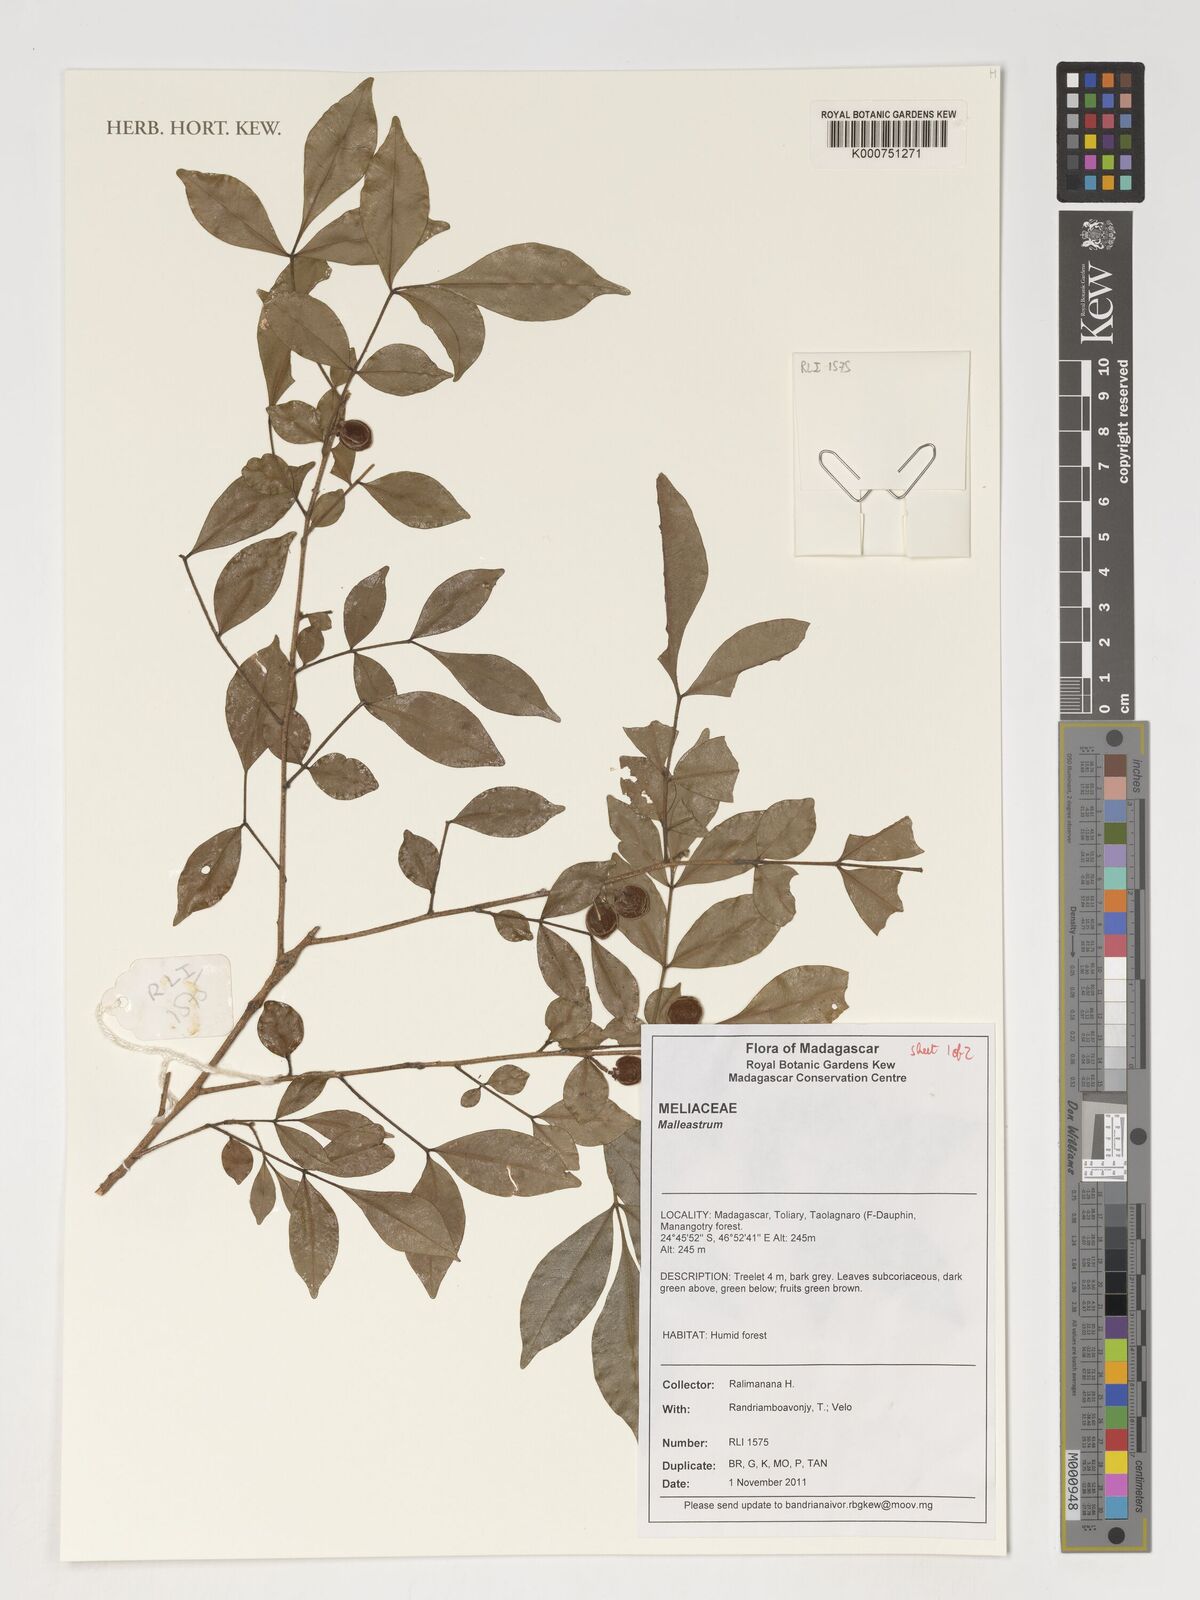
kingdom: Plantae
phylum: Tracheophyta
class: Magnoliopsida
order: Sapindales
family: Meliaceae
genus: Malleastrum
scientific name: Malleastrum
